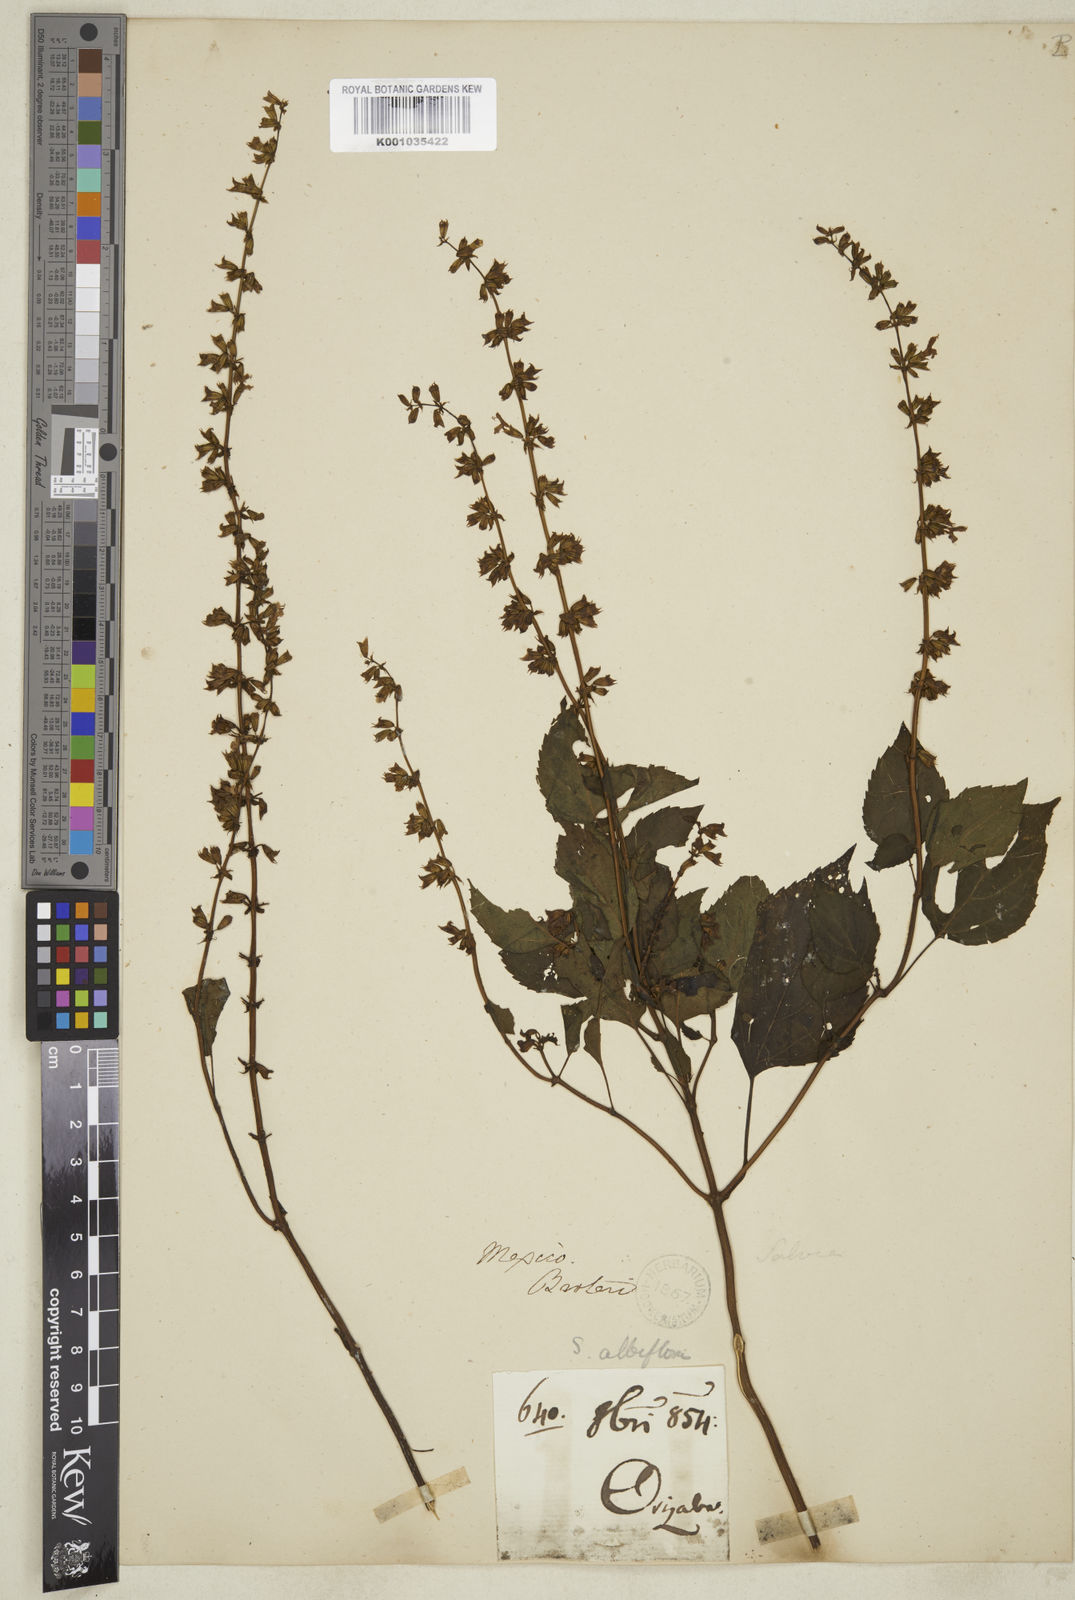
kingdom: Plantae
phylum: Tracheophyta
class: Magnoliopsida
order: Lamiales
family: Lamiaceae
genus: Salvia
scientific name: Salvia albiflora
